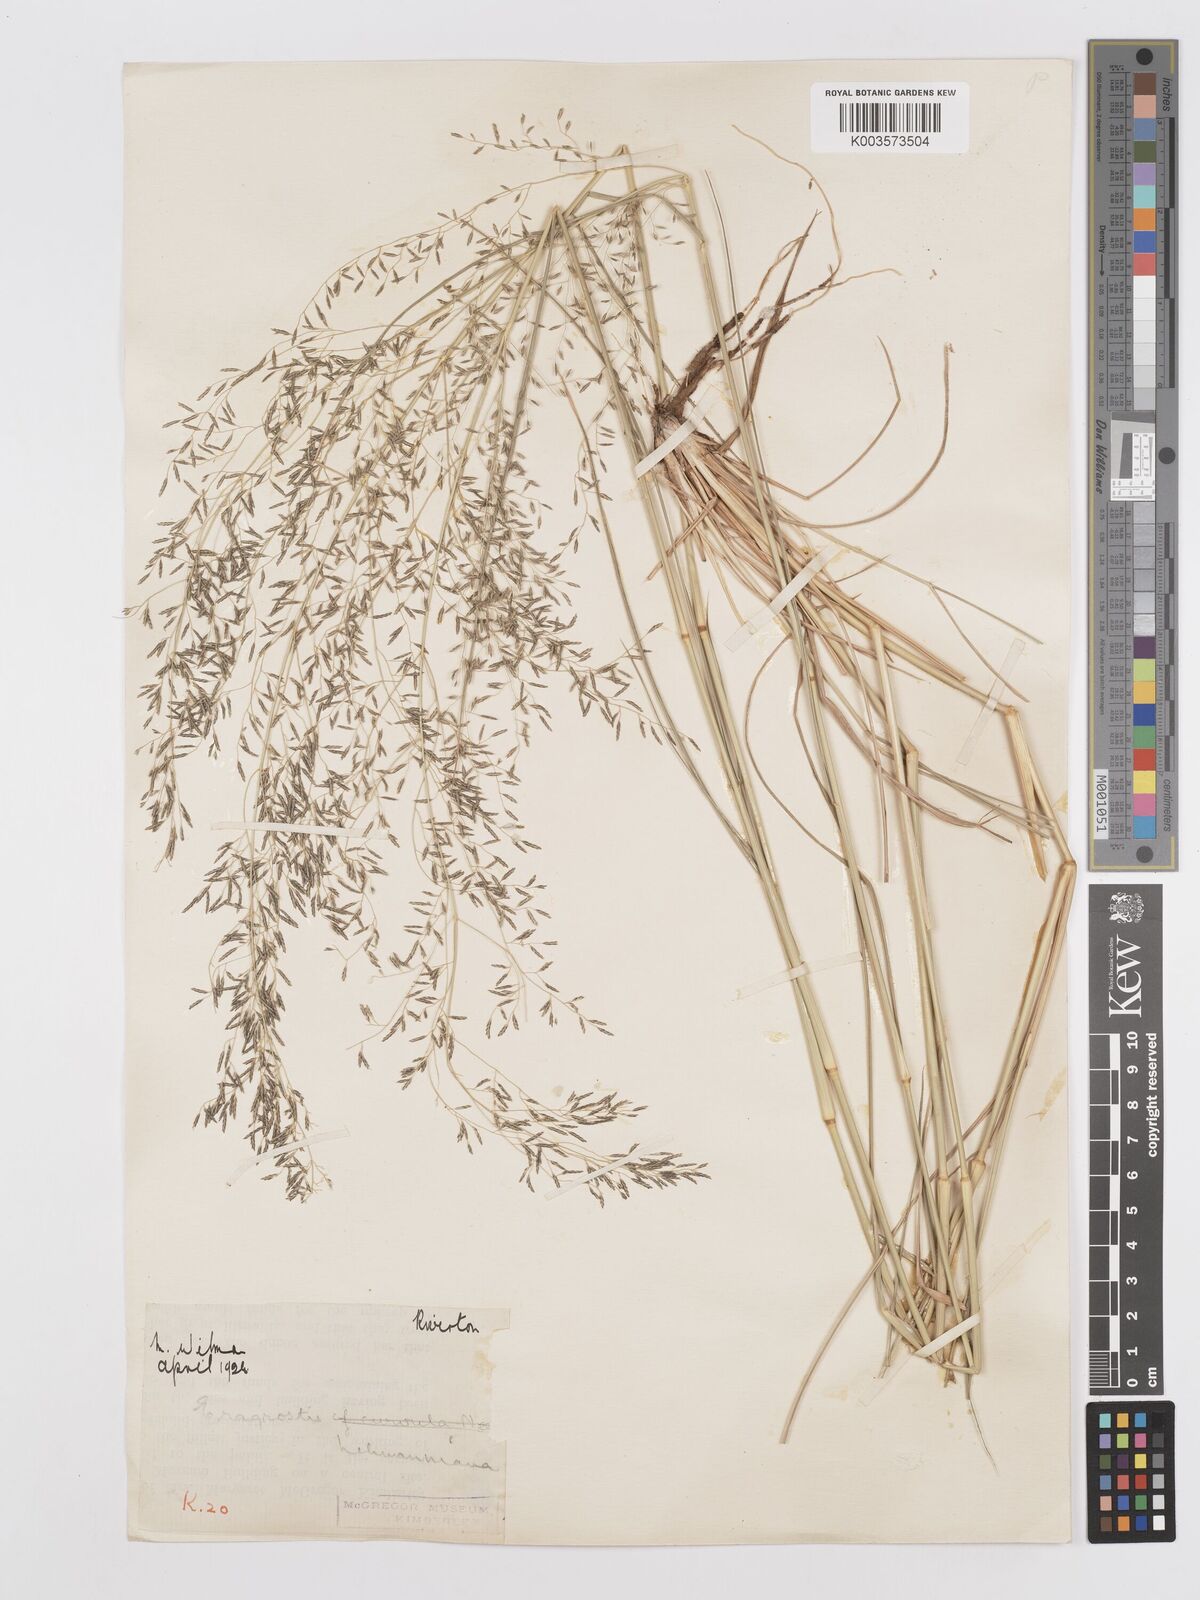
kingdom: Plantae
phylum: Tracheophyta
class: Liliopsida
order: Poales
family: Poaceae
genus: Eragrostis
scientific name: Eragrostis lehmanniana
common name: Lehmann lovegrass
